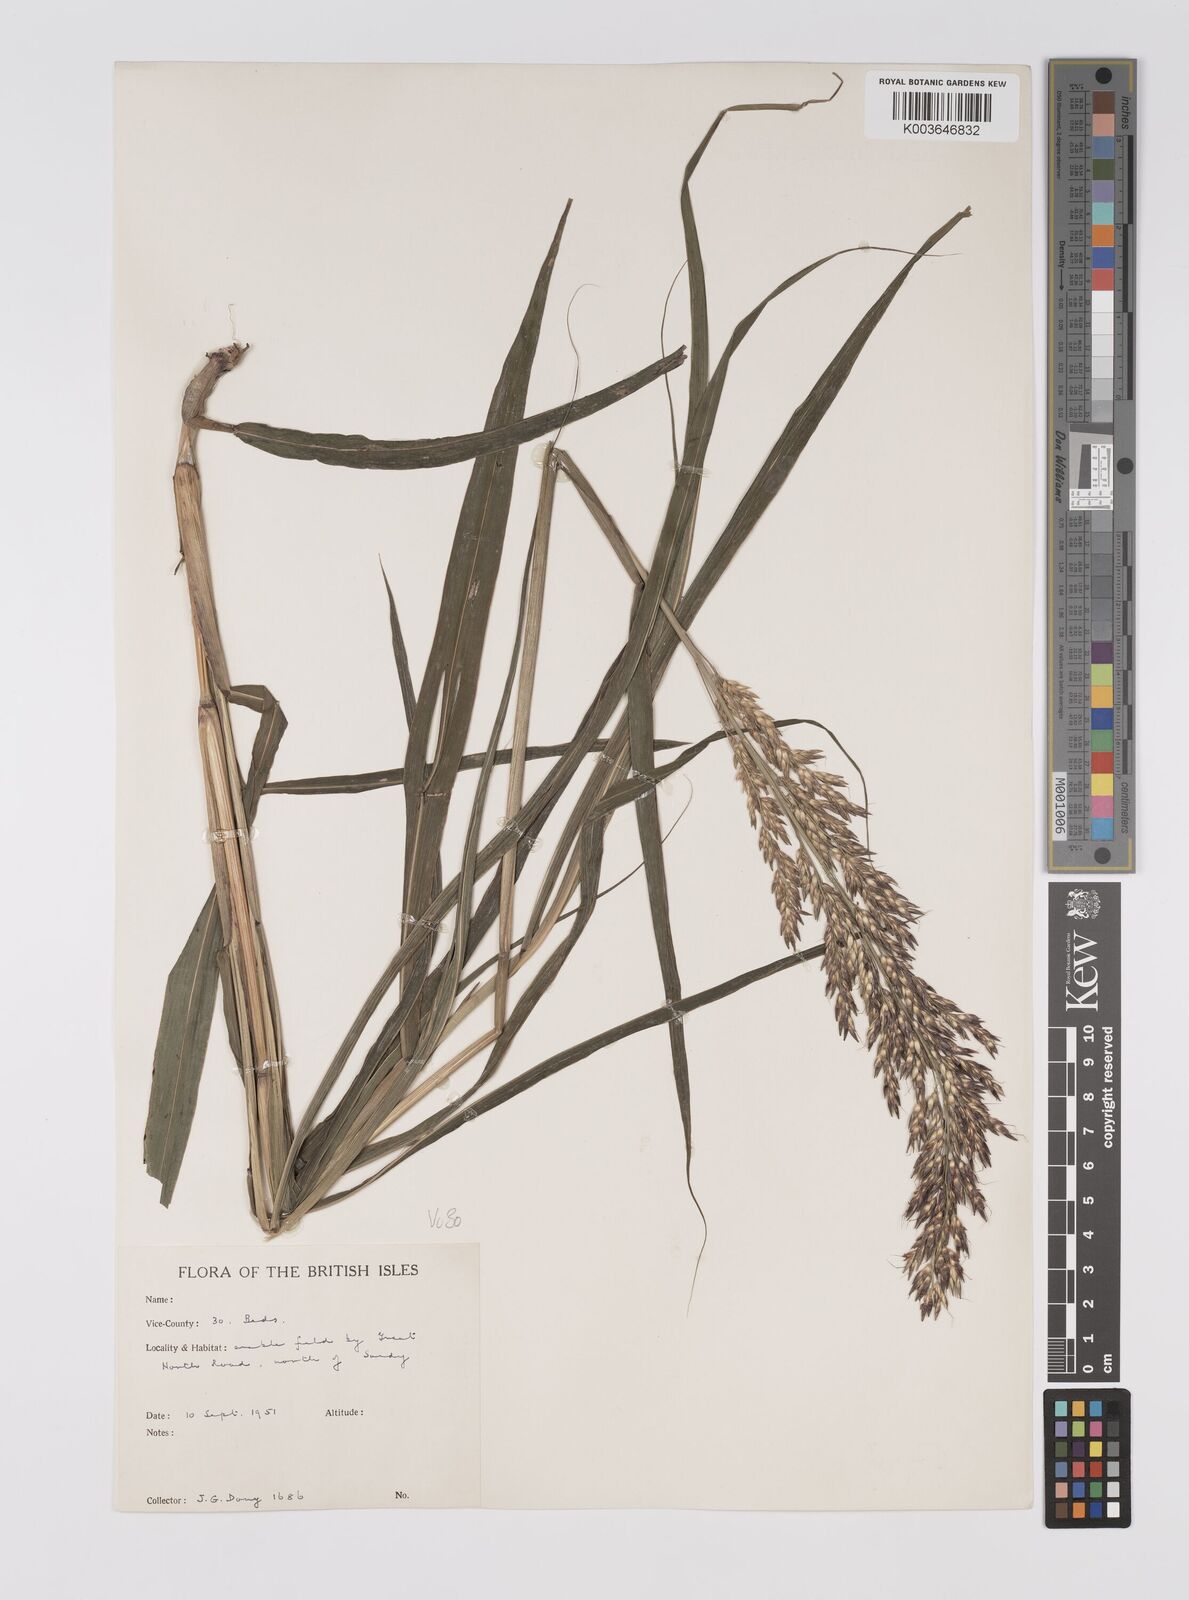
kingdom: Plantae
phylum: Tracheophyta
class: Liliopsida
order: Poales
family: Poaceae
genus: Sorghum
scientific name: Sorghum halepense
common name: Johnson-grass
